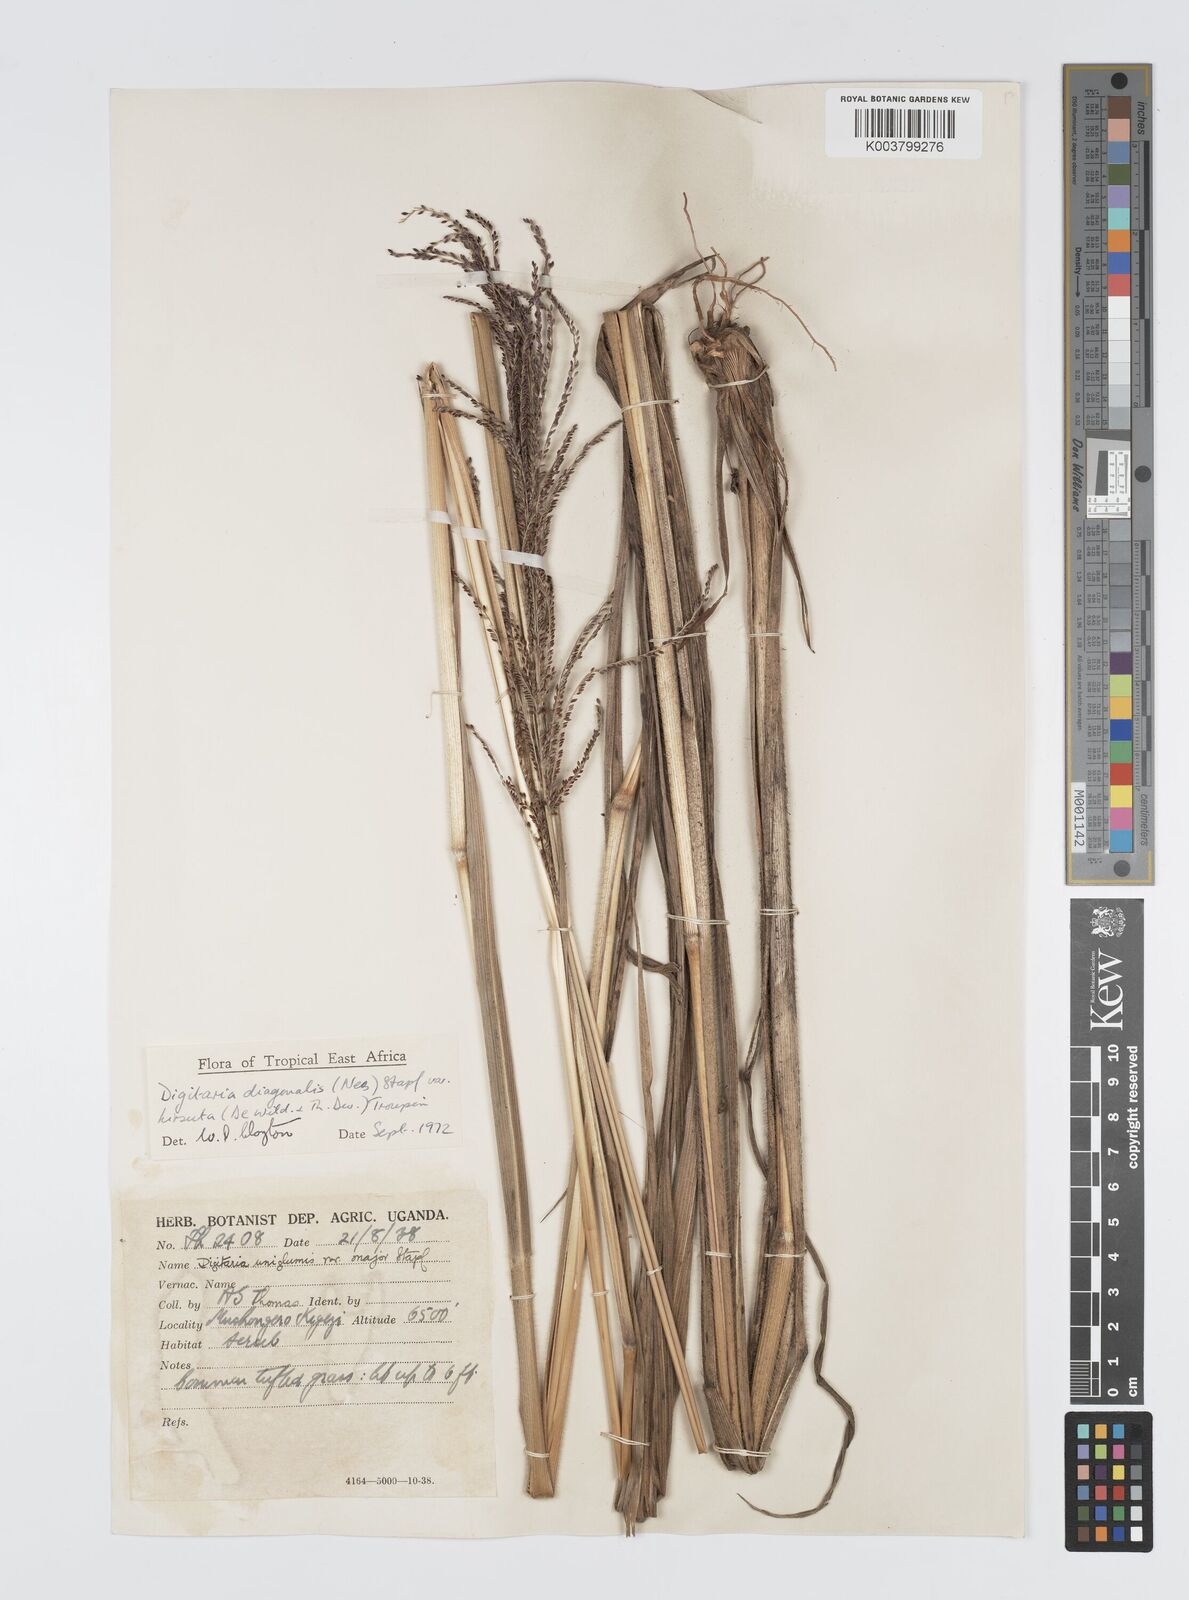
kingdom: Plantae
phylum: Tracheophyta
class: Liliopsida
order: Poales
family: Poaceae
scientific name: Poaceae
